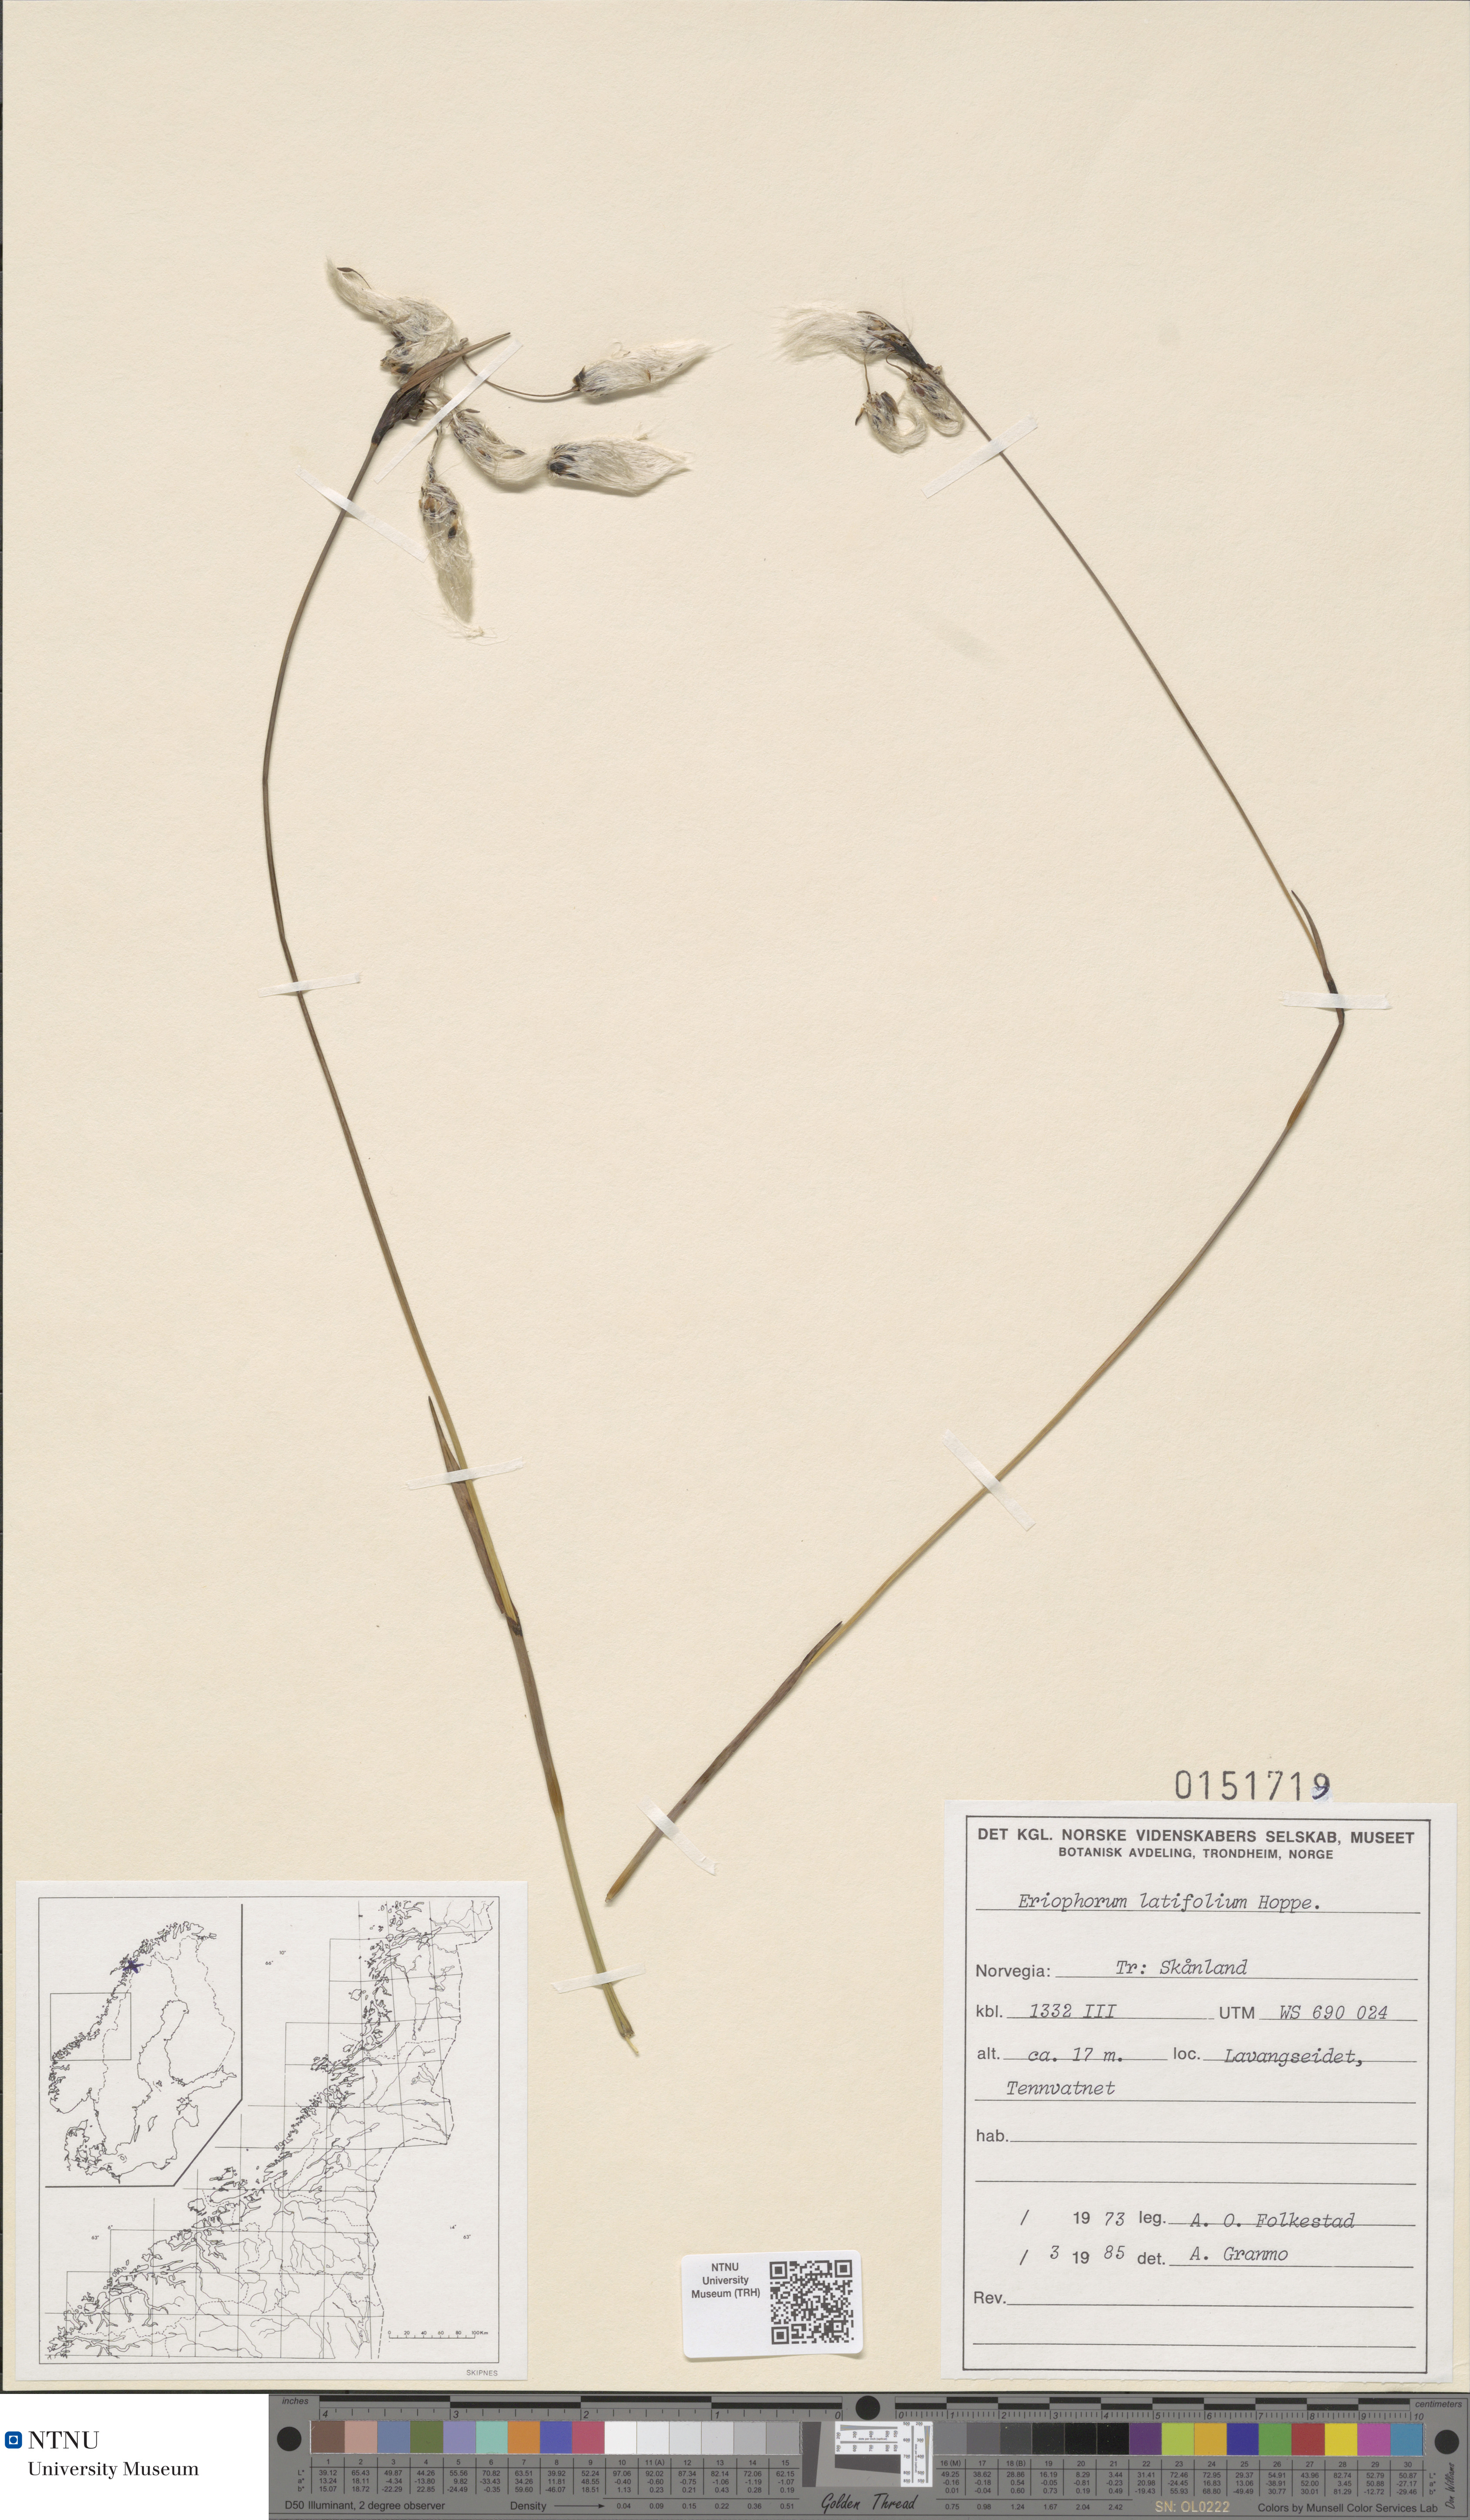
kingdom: Plantae
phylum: Tracheophyta
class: Liliopsida
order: Poales
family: Cyperaceae
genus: Eriophorum
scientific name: Eriophorum latifolium
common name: Broad-leaved cottongrass
